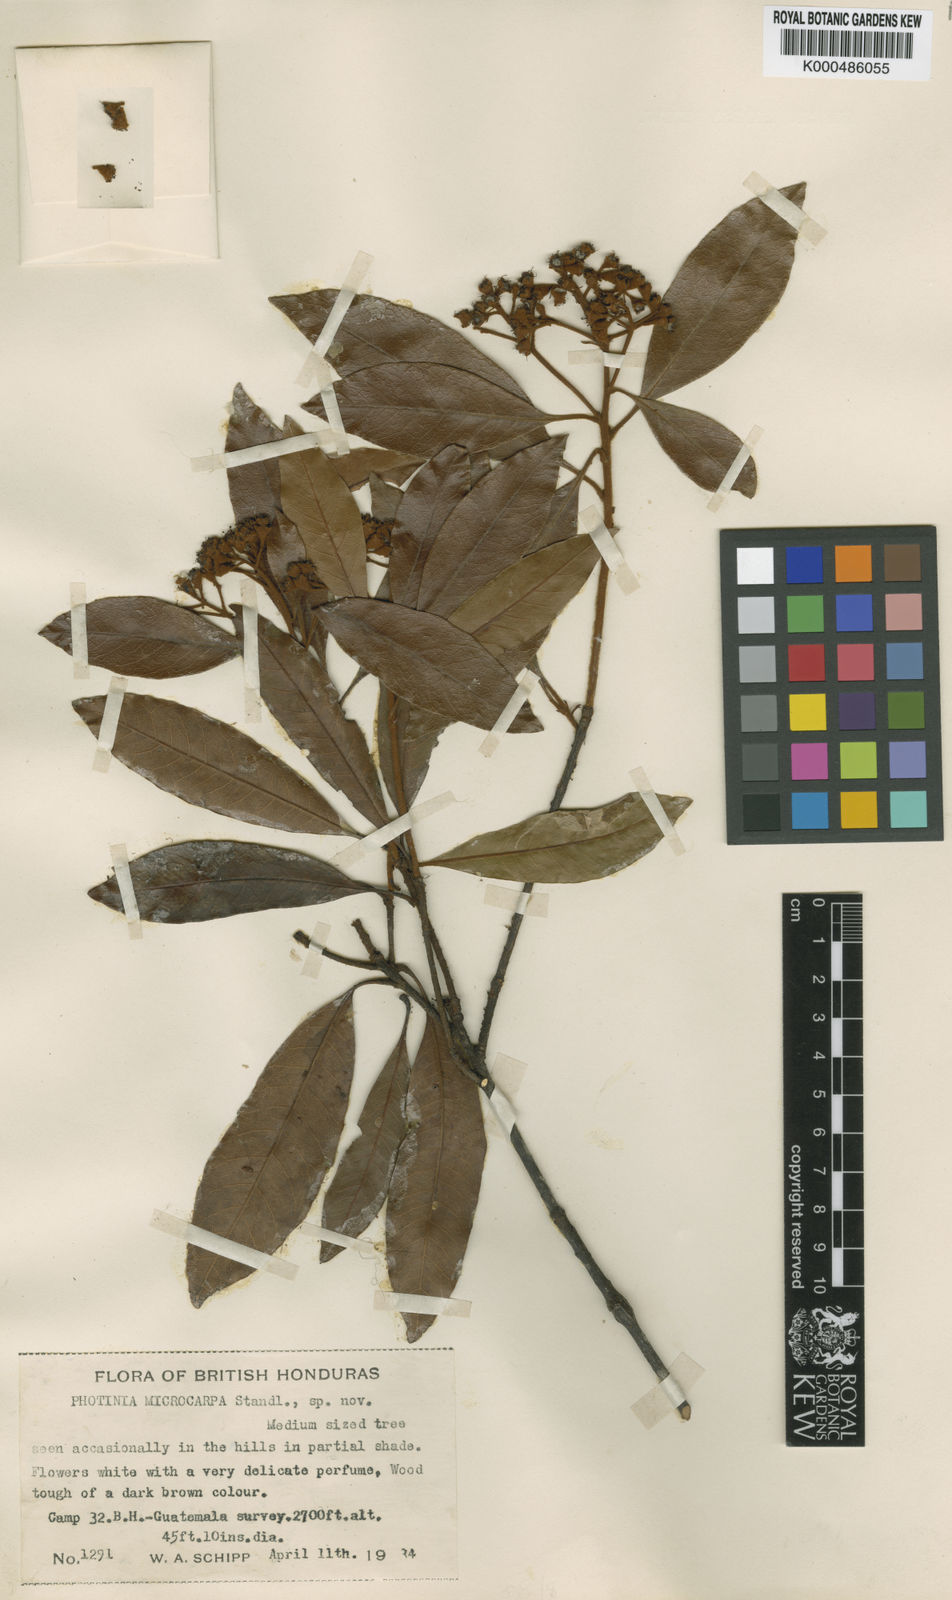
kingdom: Plantae
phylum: Tracheophyta
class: Magnoliopsida
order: Rosales
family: Rosaceae
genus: Phippsiomeles
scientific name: Phippsiomeles microcarpa
